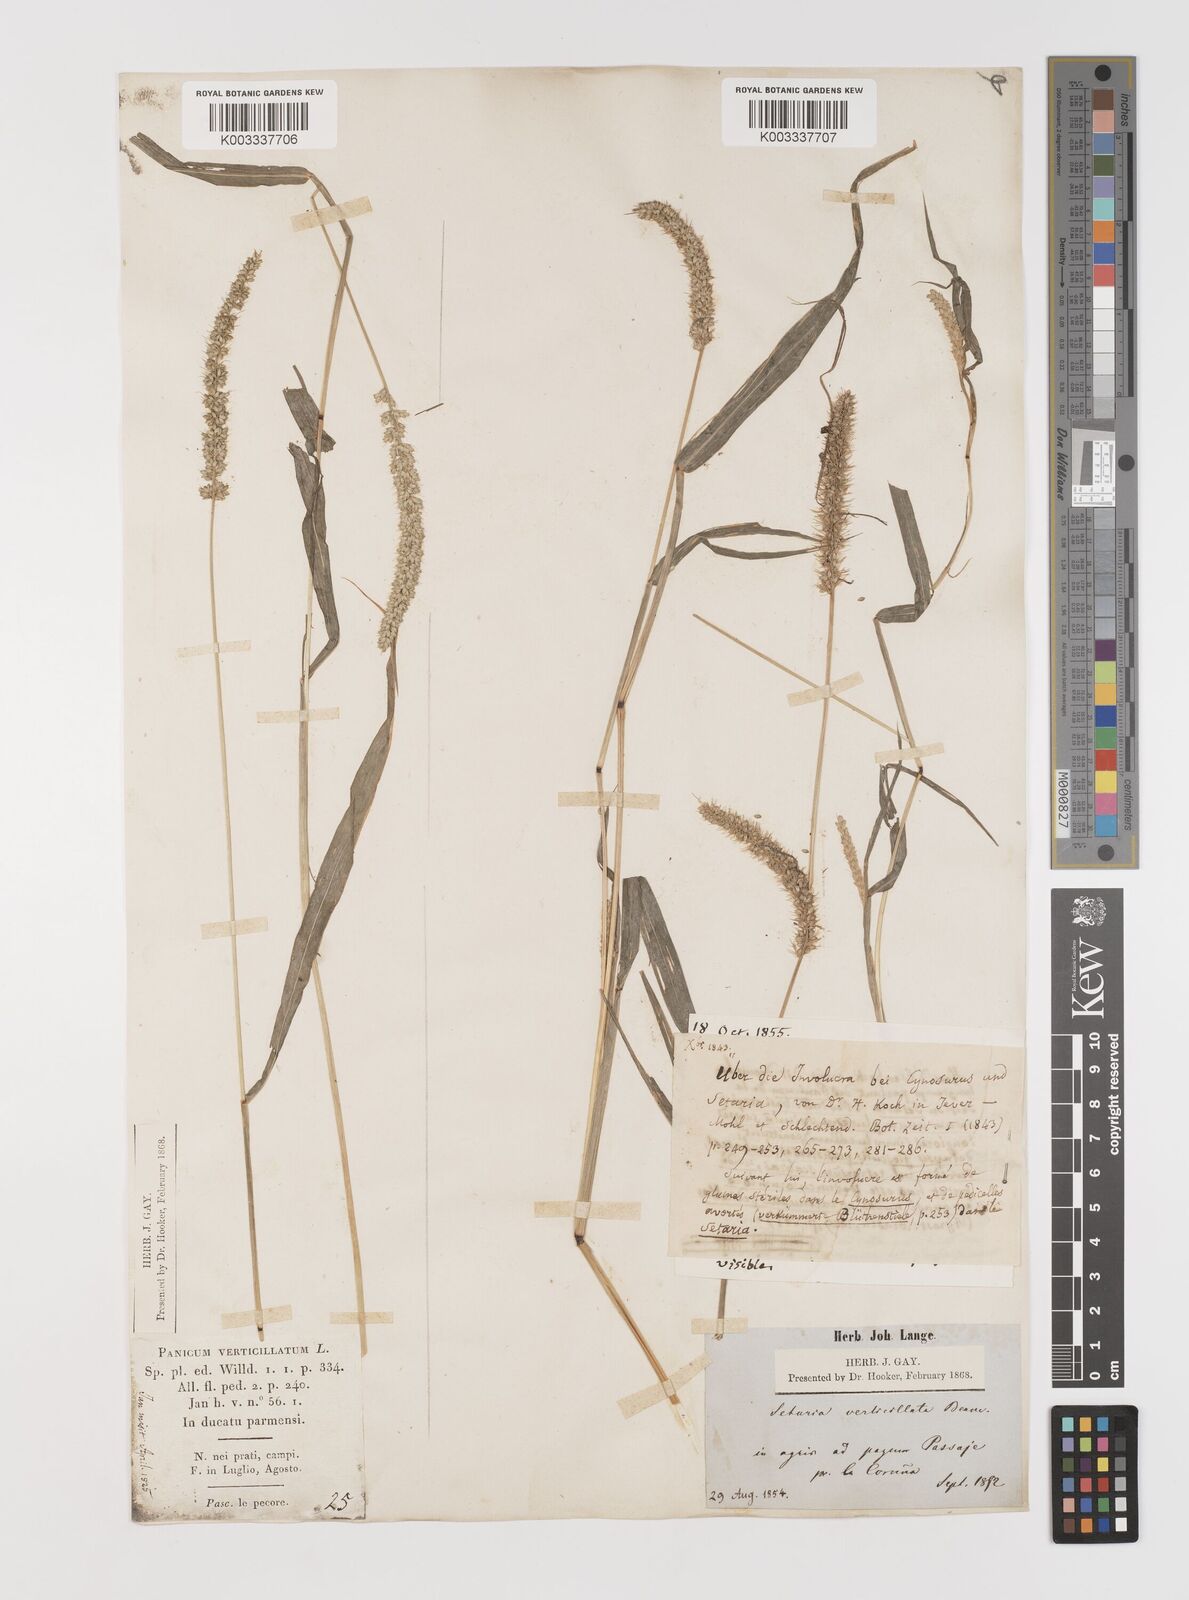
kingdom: Plantae
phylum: Tracheophyta
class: Liliopsida
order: Poales
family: Poaceae
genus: Setaria
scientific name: Setaria verticillata
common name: Hooked bristlegrass
